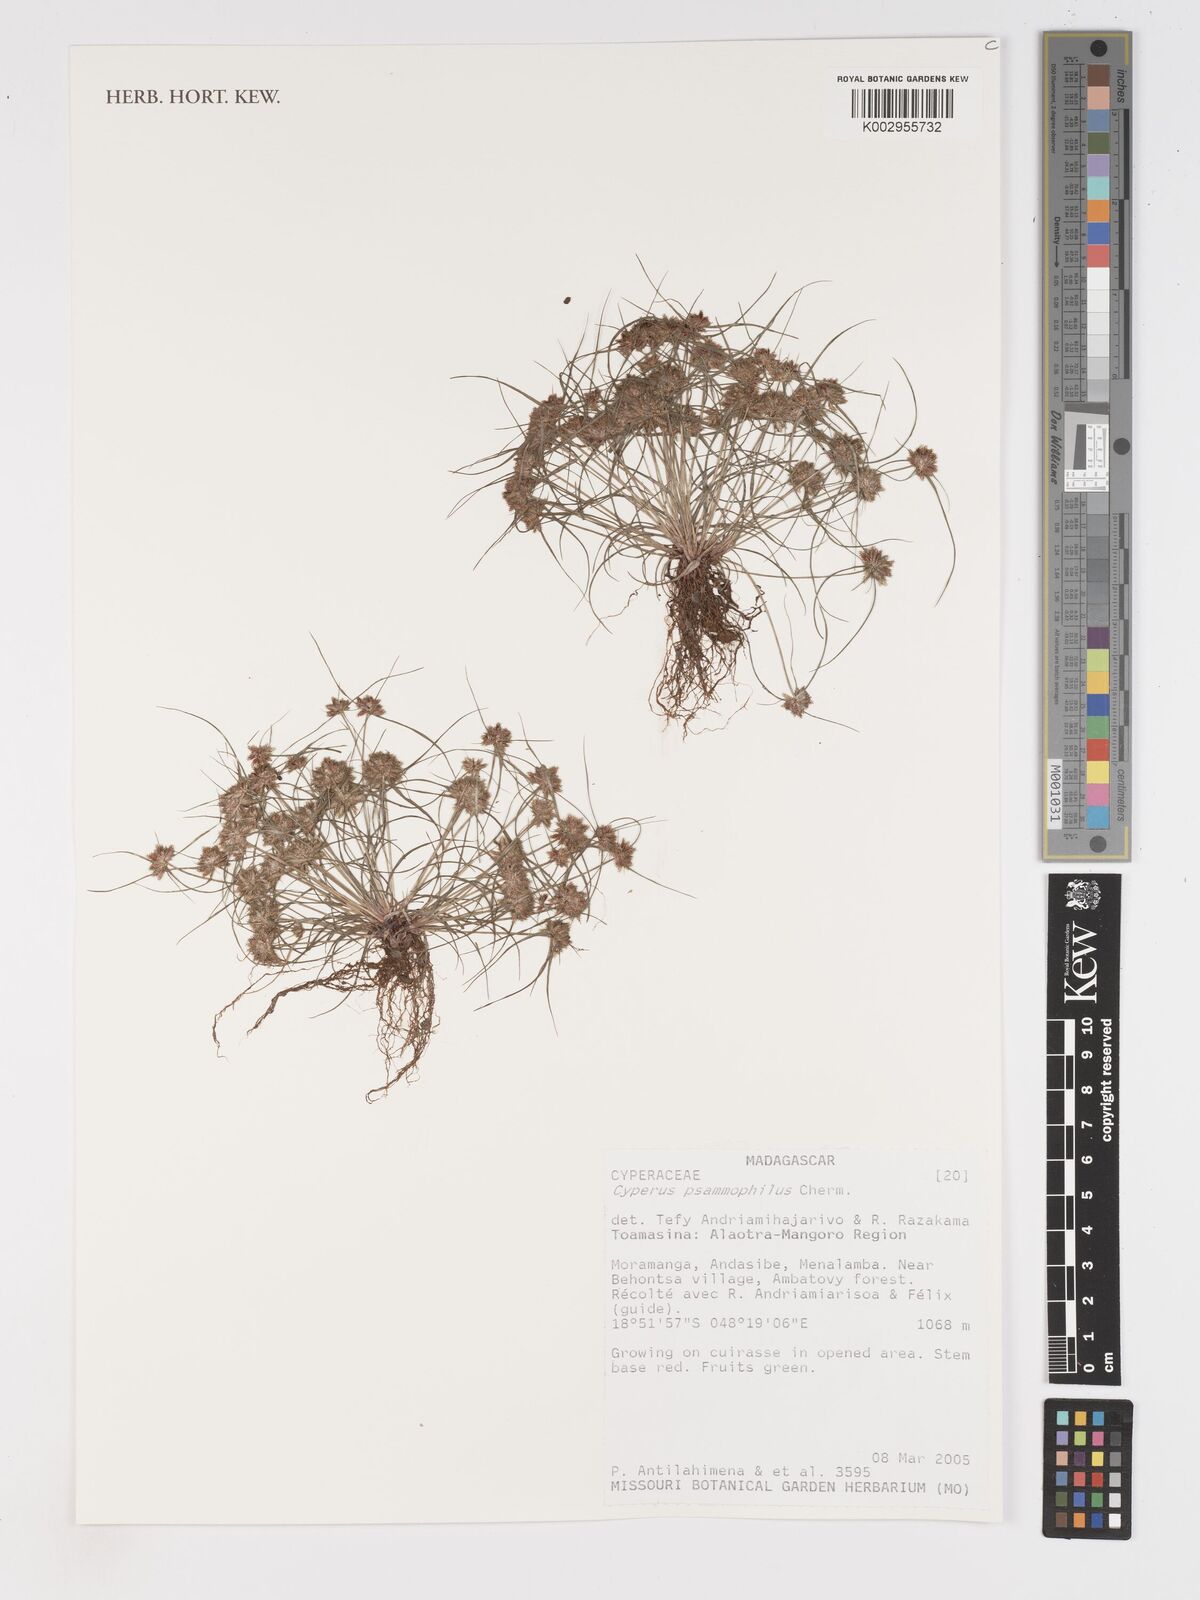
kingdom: Plantae
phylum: Tracheophyta
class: Liliopsida
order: Poales
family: Cyperaceae
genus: Cyperus
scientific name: Cyperus psammophilus
